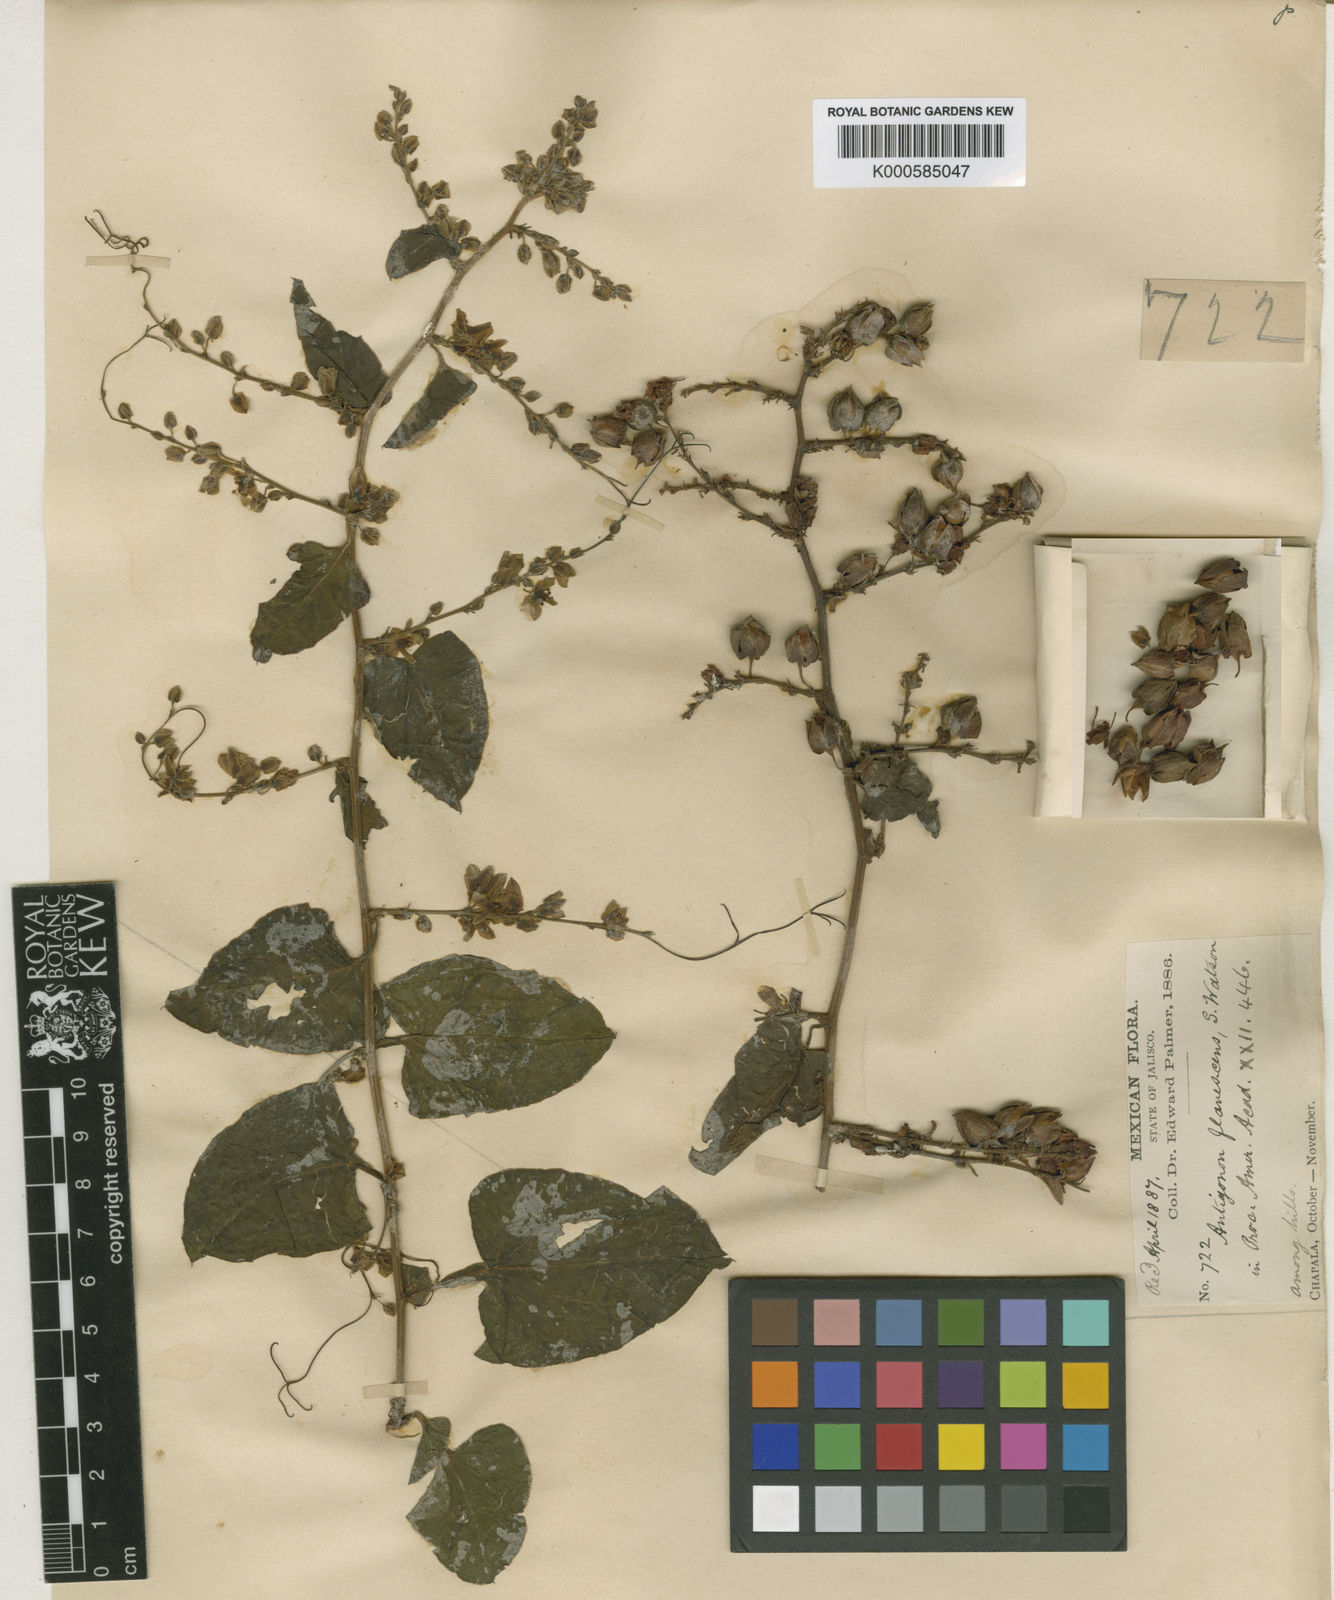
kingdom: Plantae
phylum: Tracheophyta
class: Magnoliopsida
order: Caryophyllales
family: Polygonaceae
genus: Antigonon
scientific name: Antigonon flavescens
